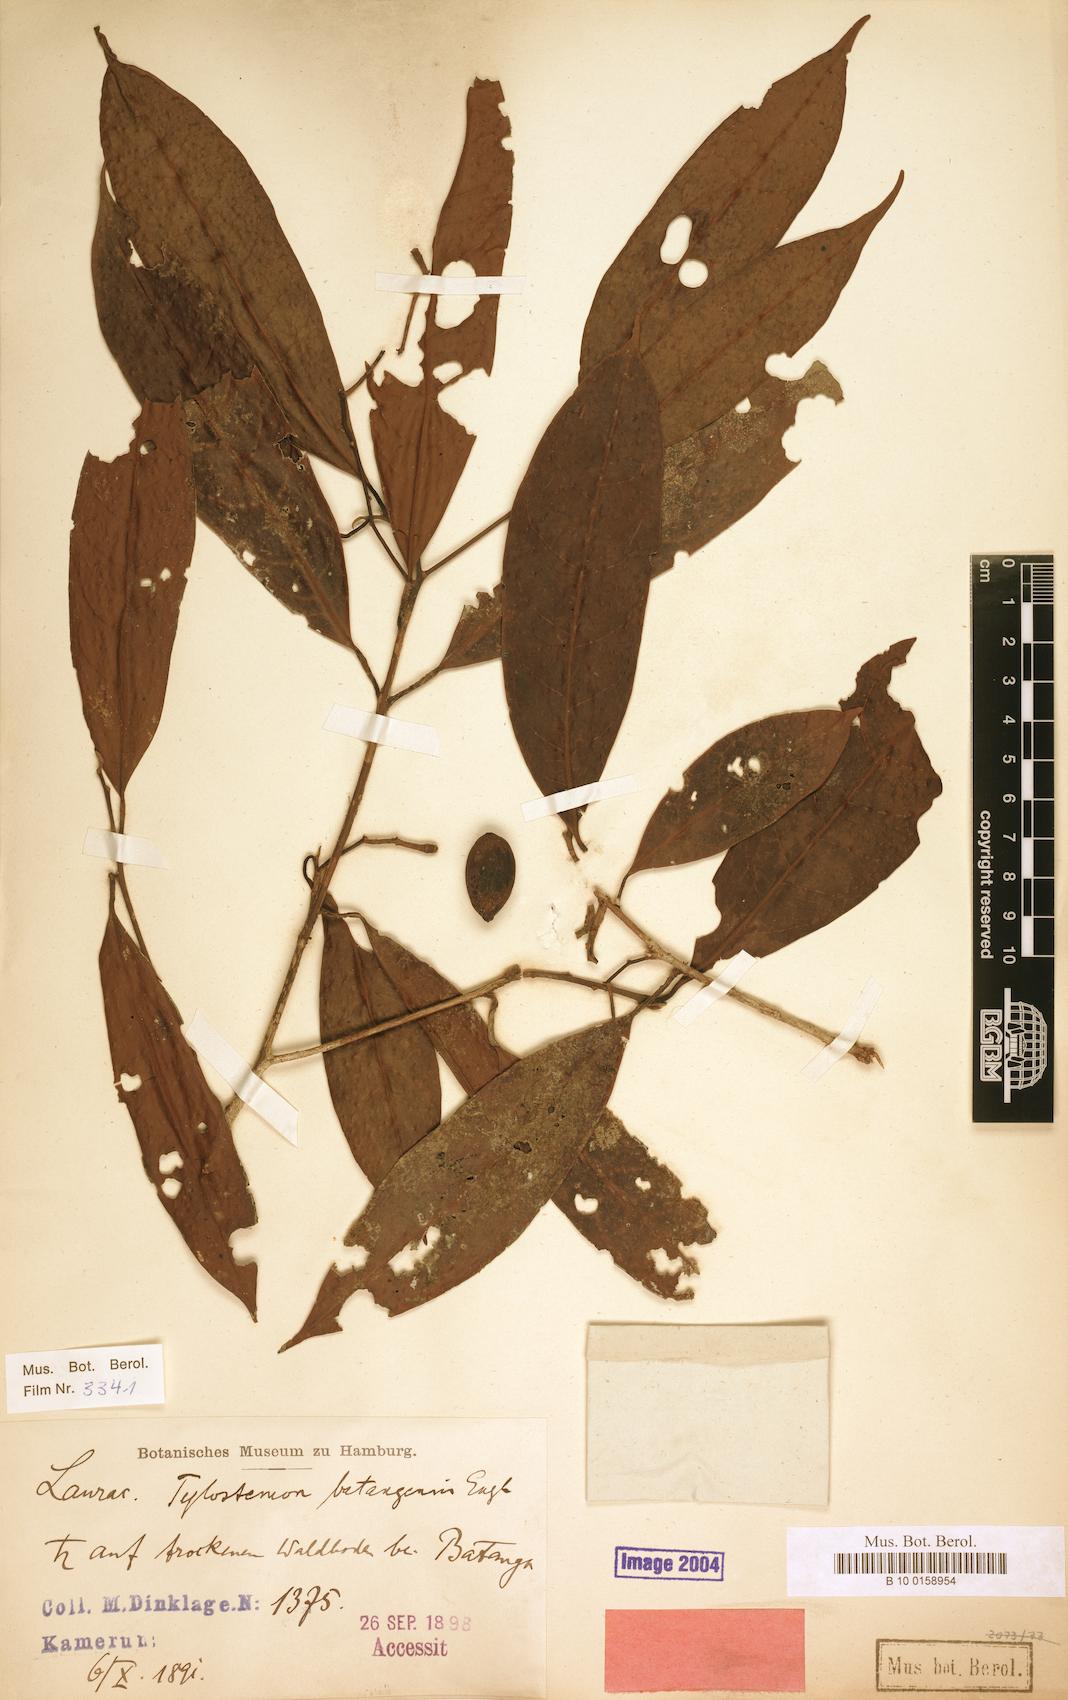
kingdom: Plantae
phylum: Tracheophyta
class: Magnoliopsida
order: Laurales
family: Lauraceae
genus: Beilschmiedia
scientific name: Beilschmiedia batangensis
